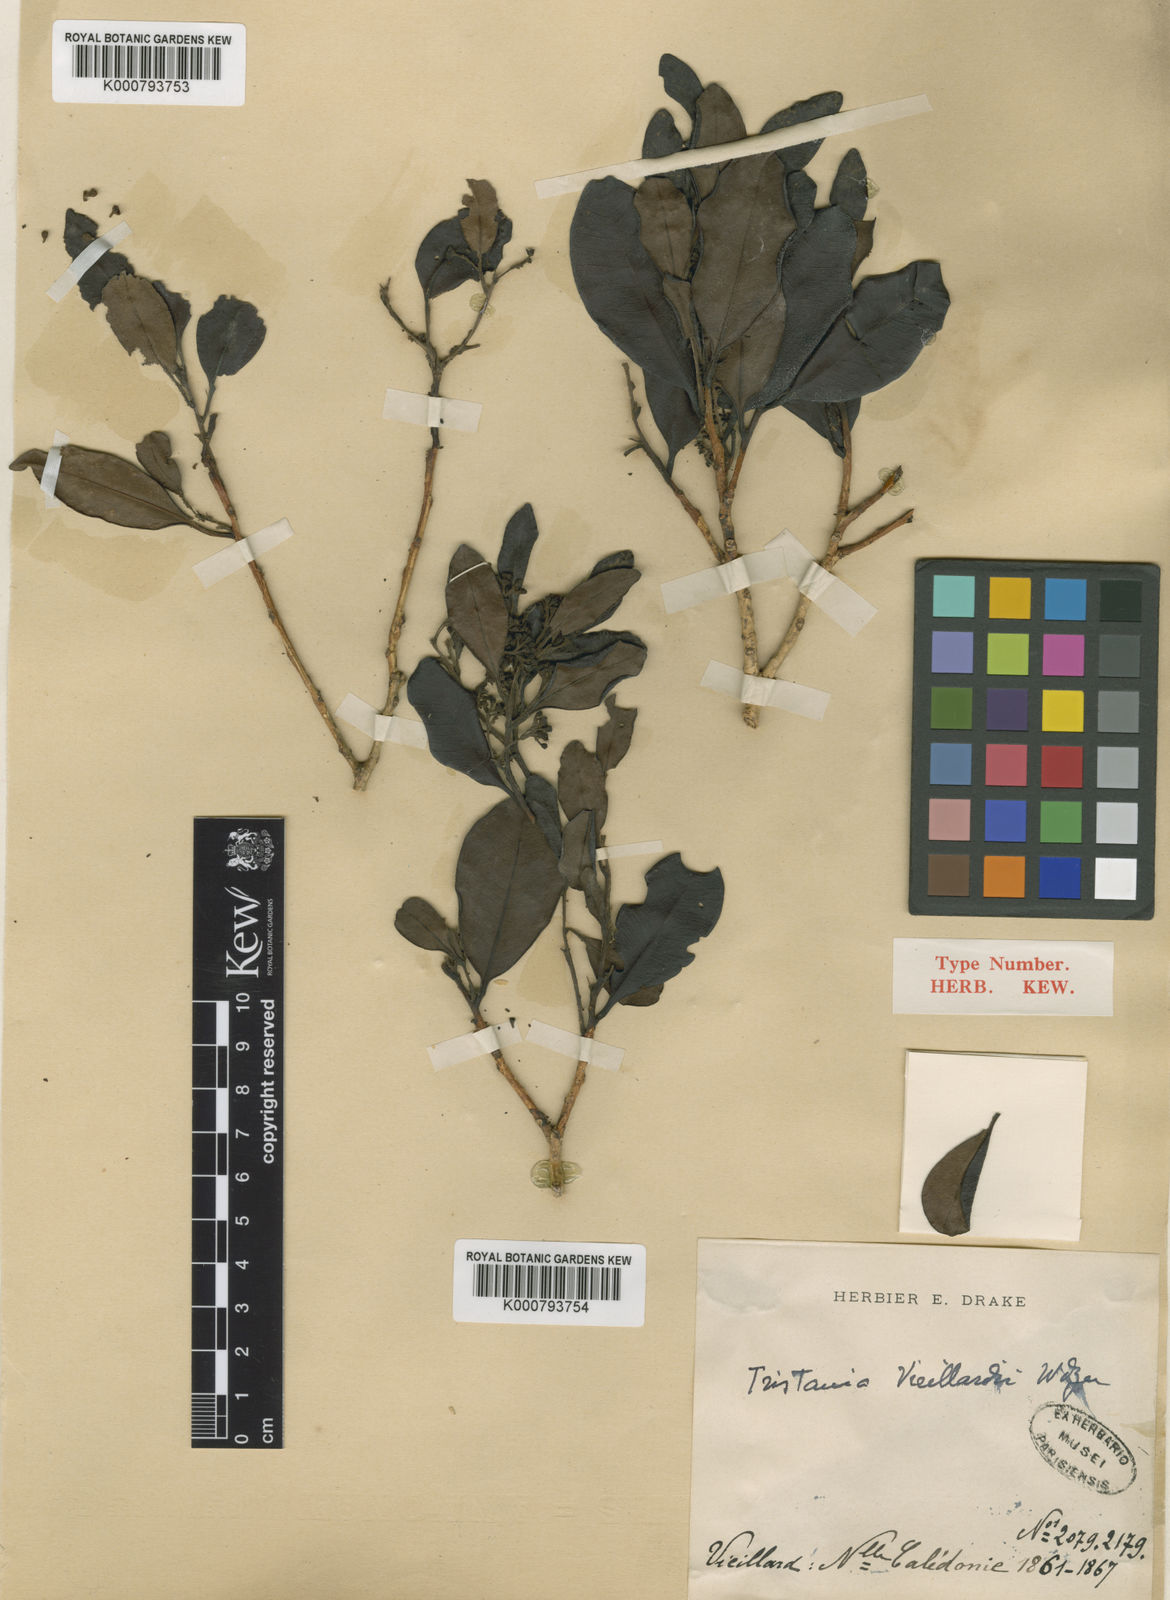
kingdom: Plantae
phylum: Tracheophyta
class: Magnoliopsida
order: Myrtales
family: Myrtaceae
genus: Tristaniopsis
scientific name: Tristaniopsis vieillardii
